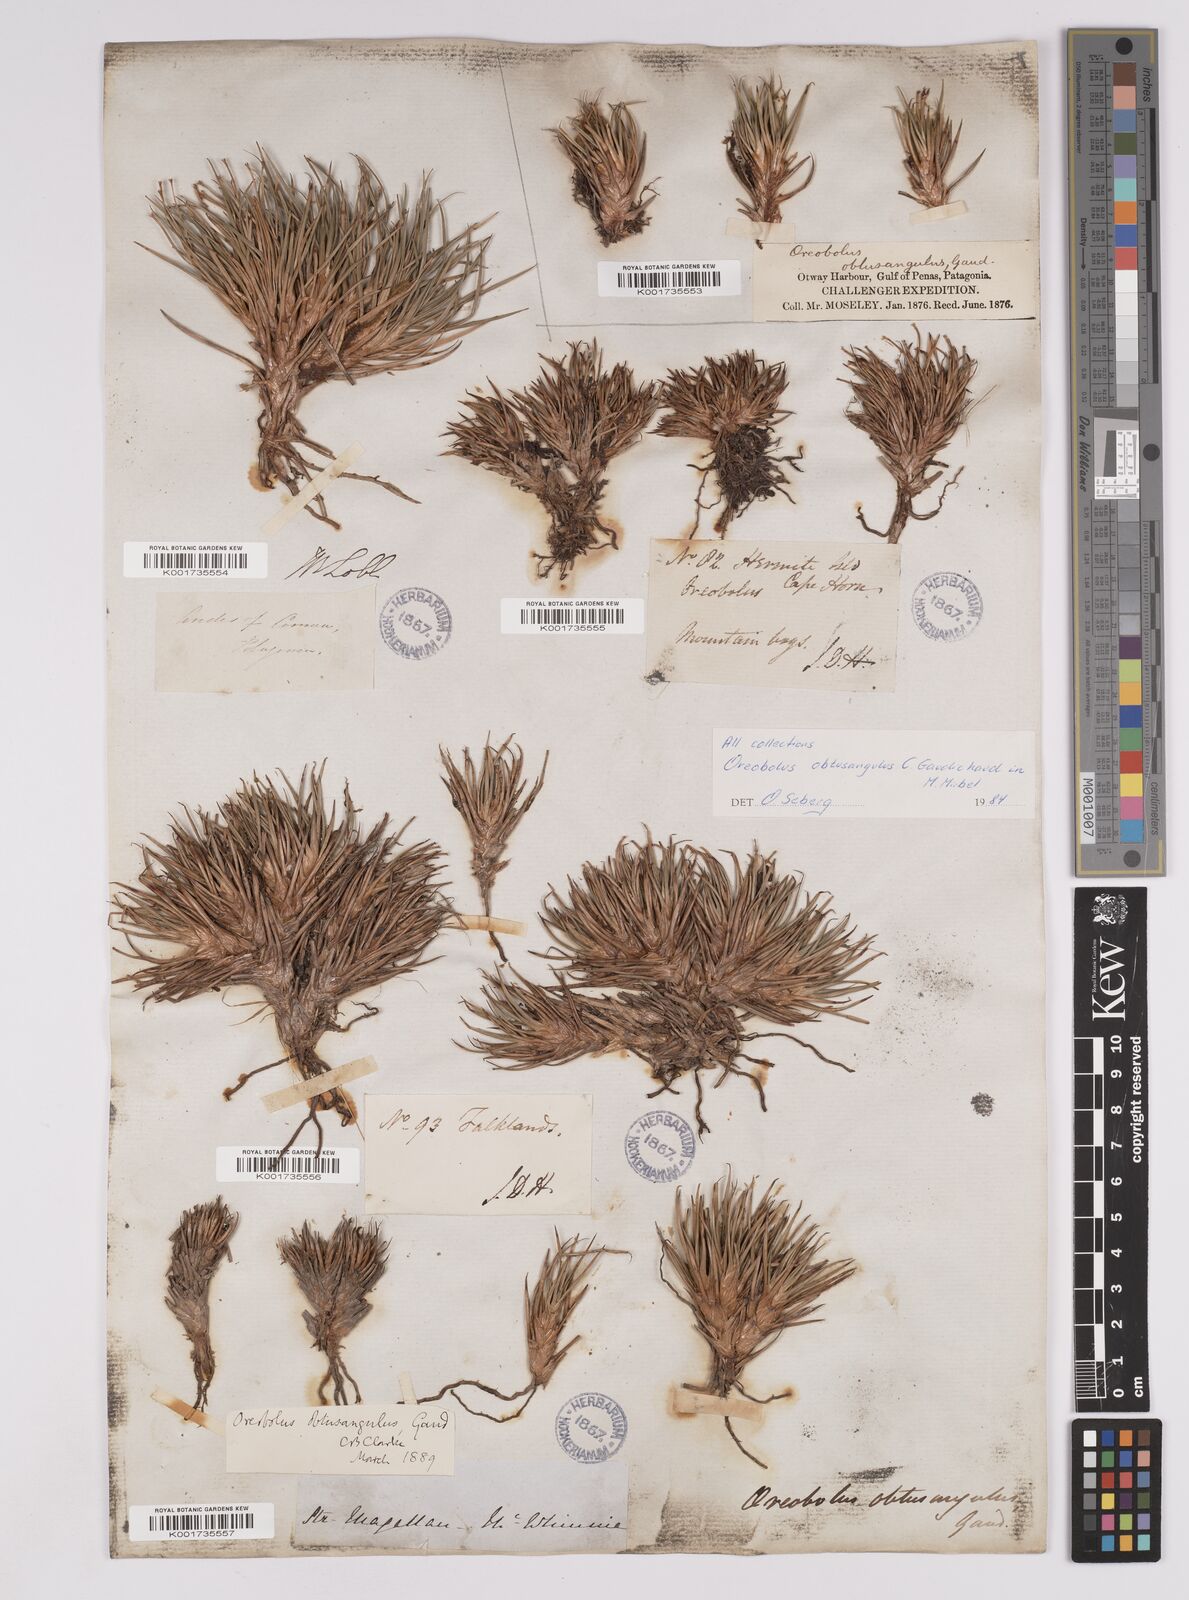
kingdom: Plantae
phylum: Tracheophyta
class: Liliopsida
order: Poales
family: Cyperaceae
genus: Oreobolus
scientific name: Oreobolus obtusangulus
